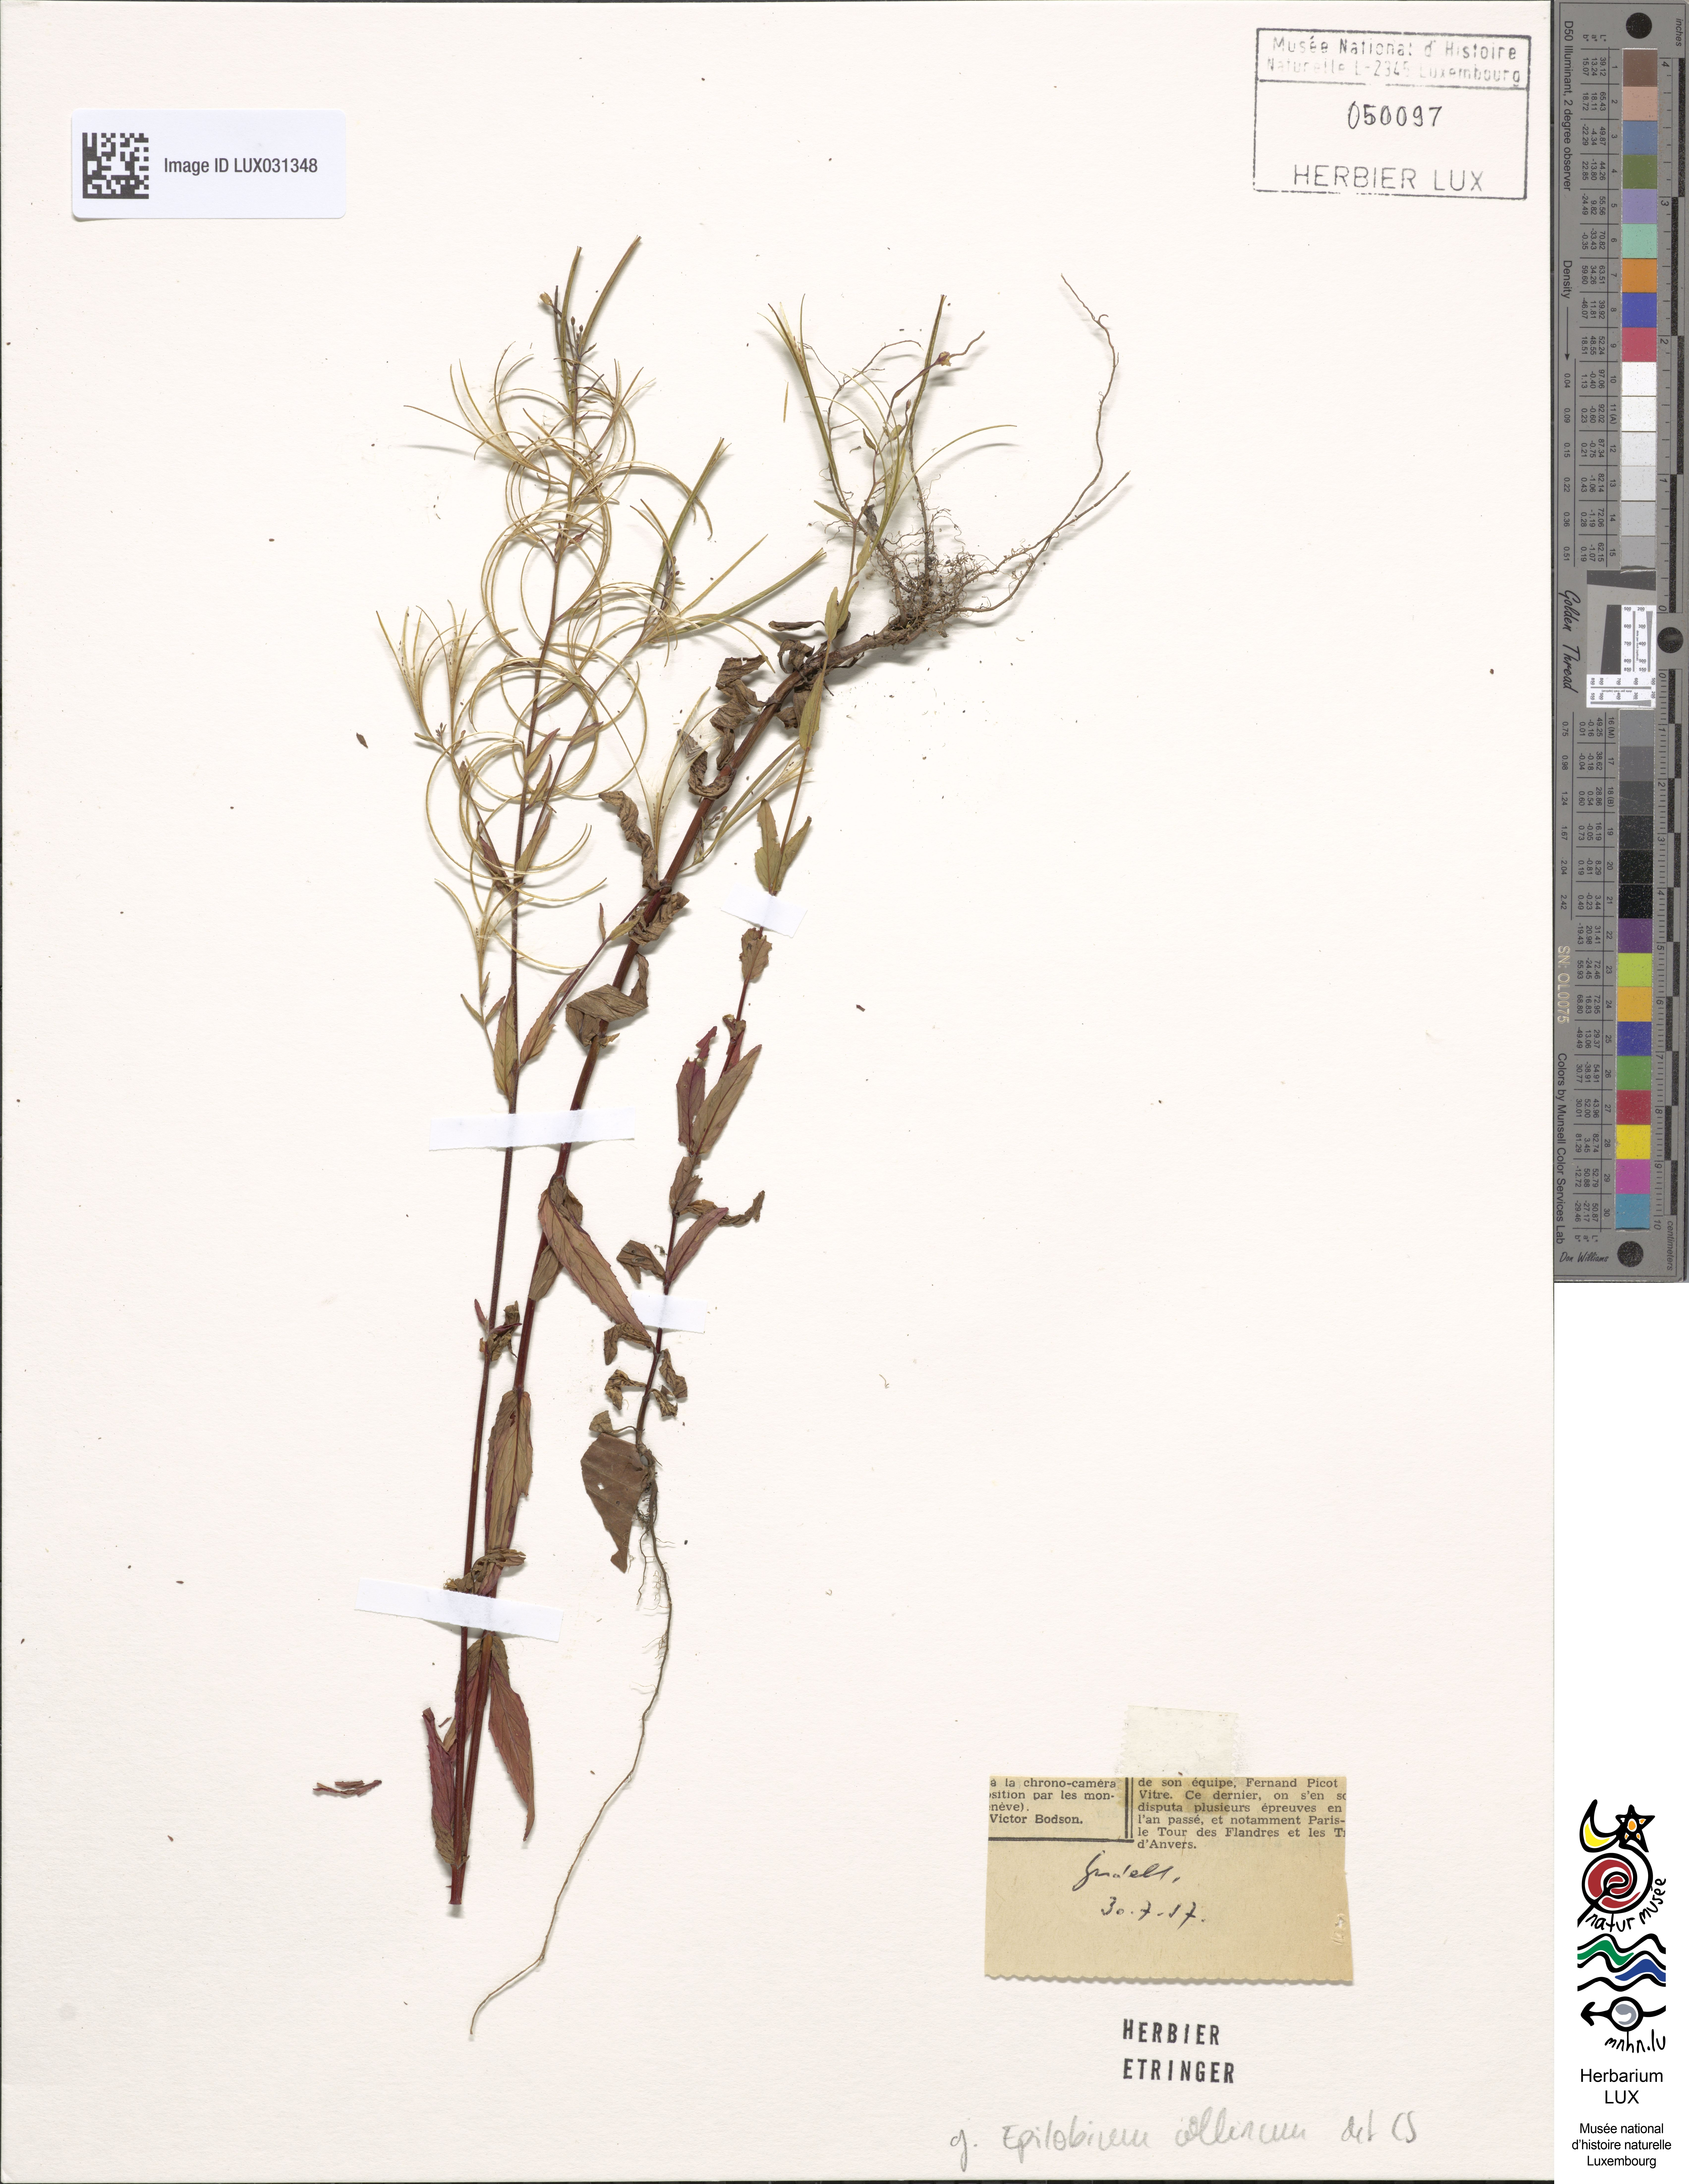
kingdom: Plantae
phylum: Tracheophyta
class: Magnoliopsida
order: Myrtales
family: Onagraceae
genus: Epilobium
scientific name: Epilobium collinum
